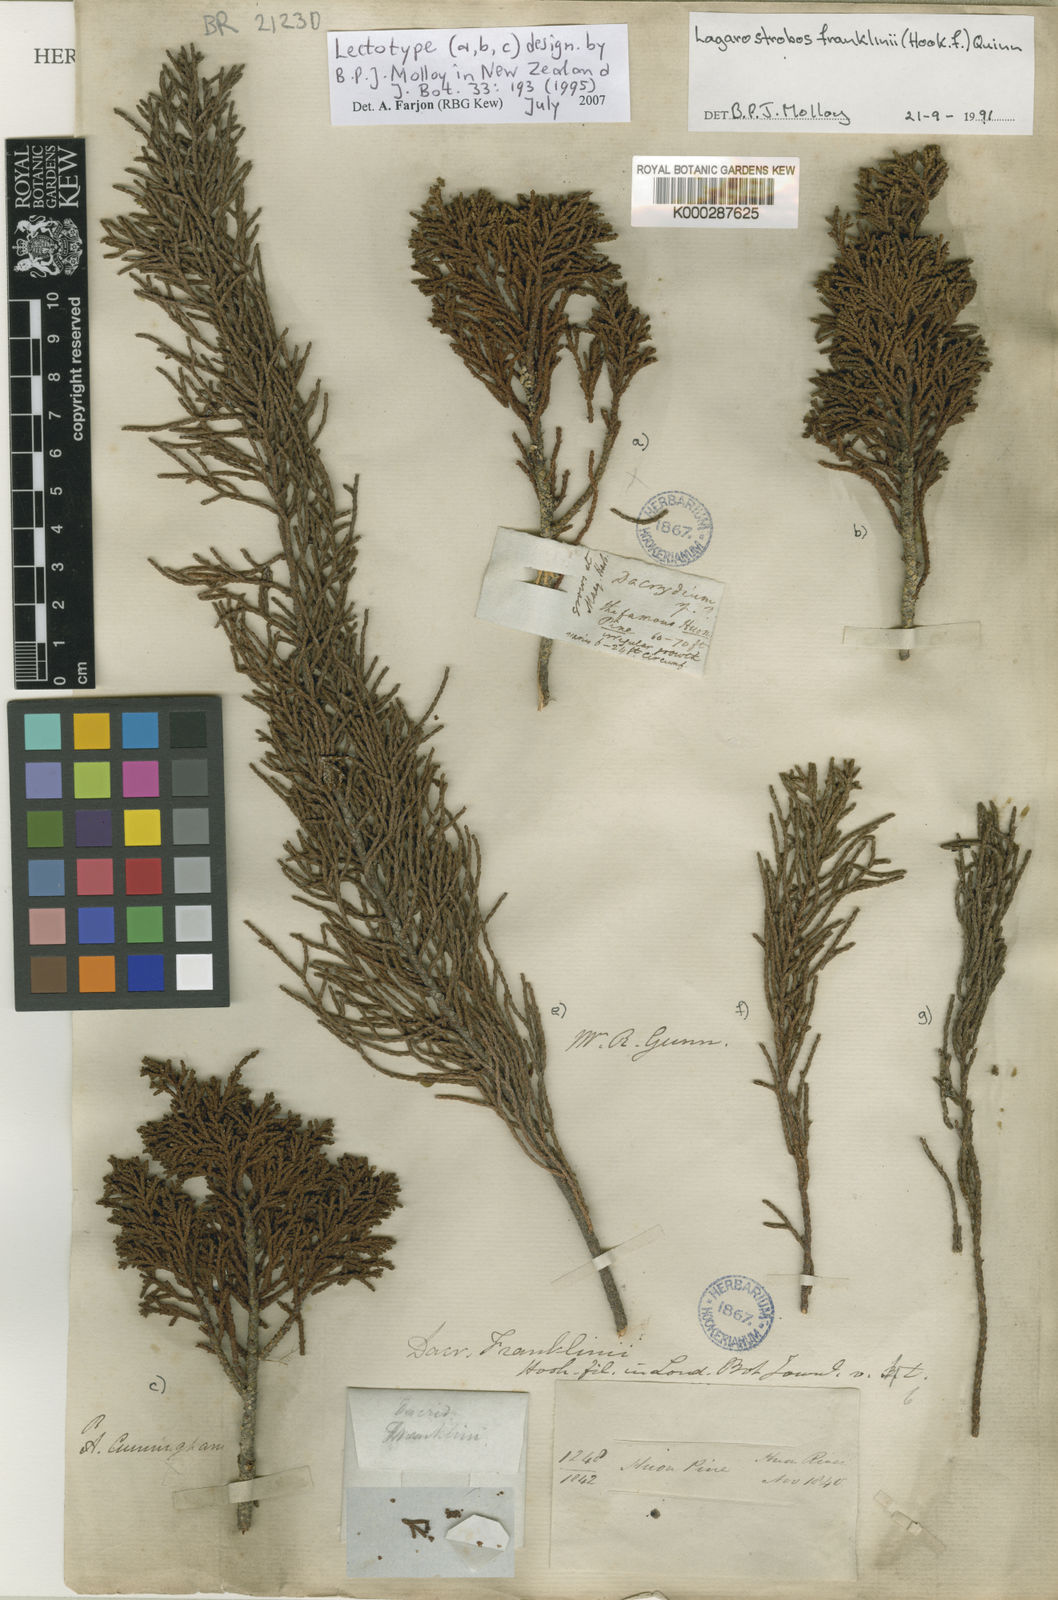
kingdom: Plantae
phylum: Tracheophyta
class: Pinopsida
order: Pinales
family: Podocarpaceae
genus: Lagarostrobos
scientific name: Lagarostrobos franklinii
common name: Huon pine
